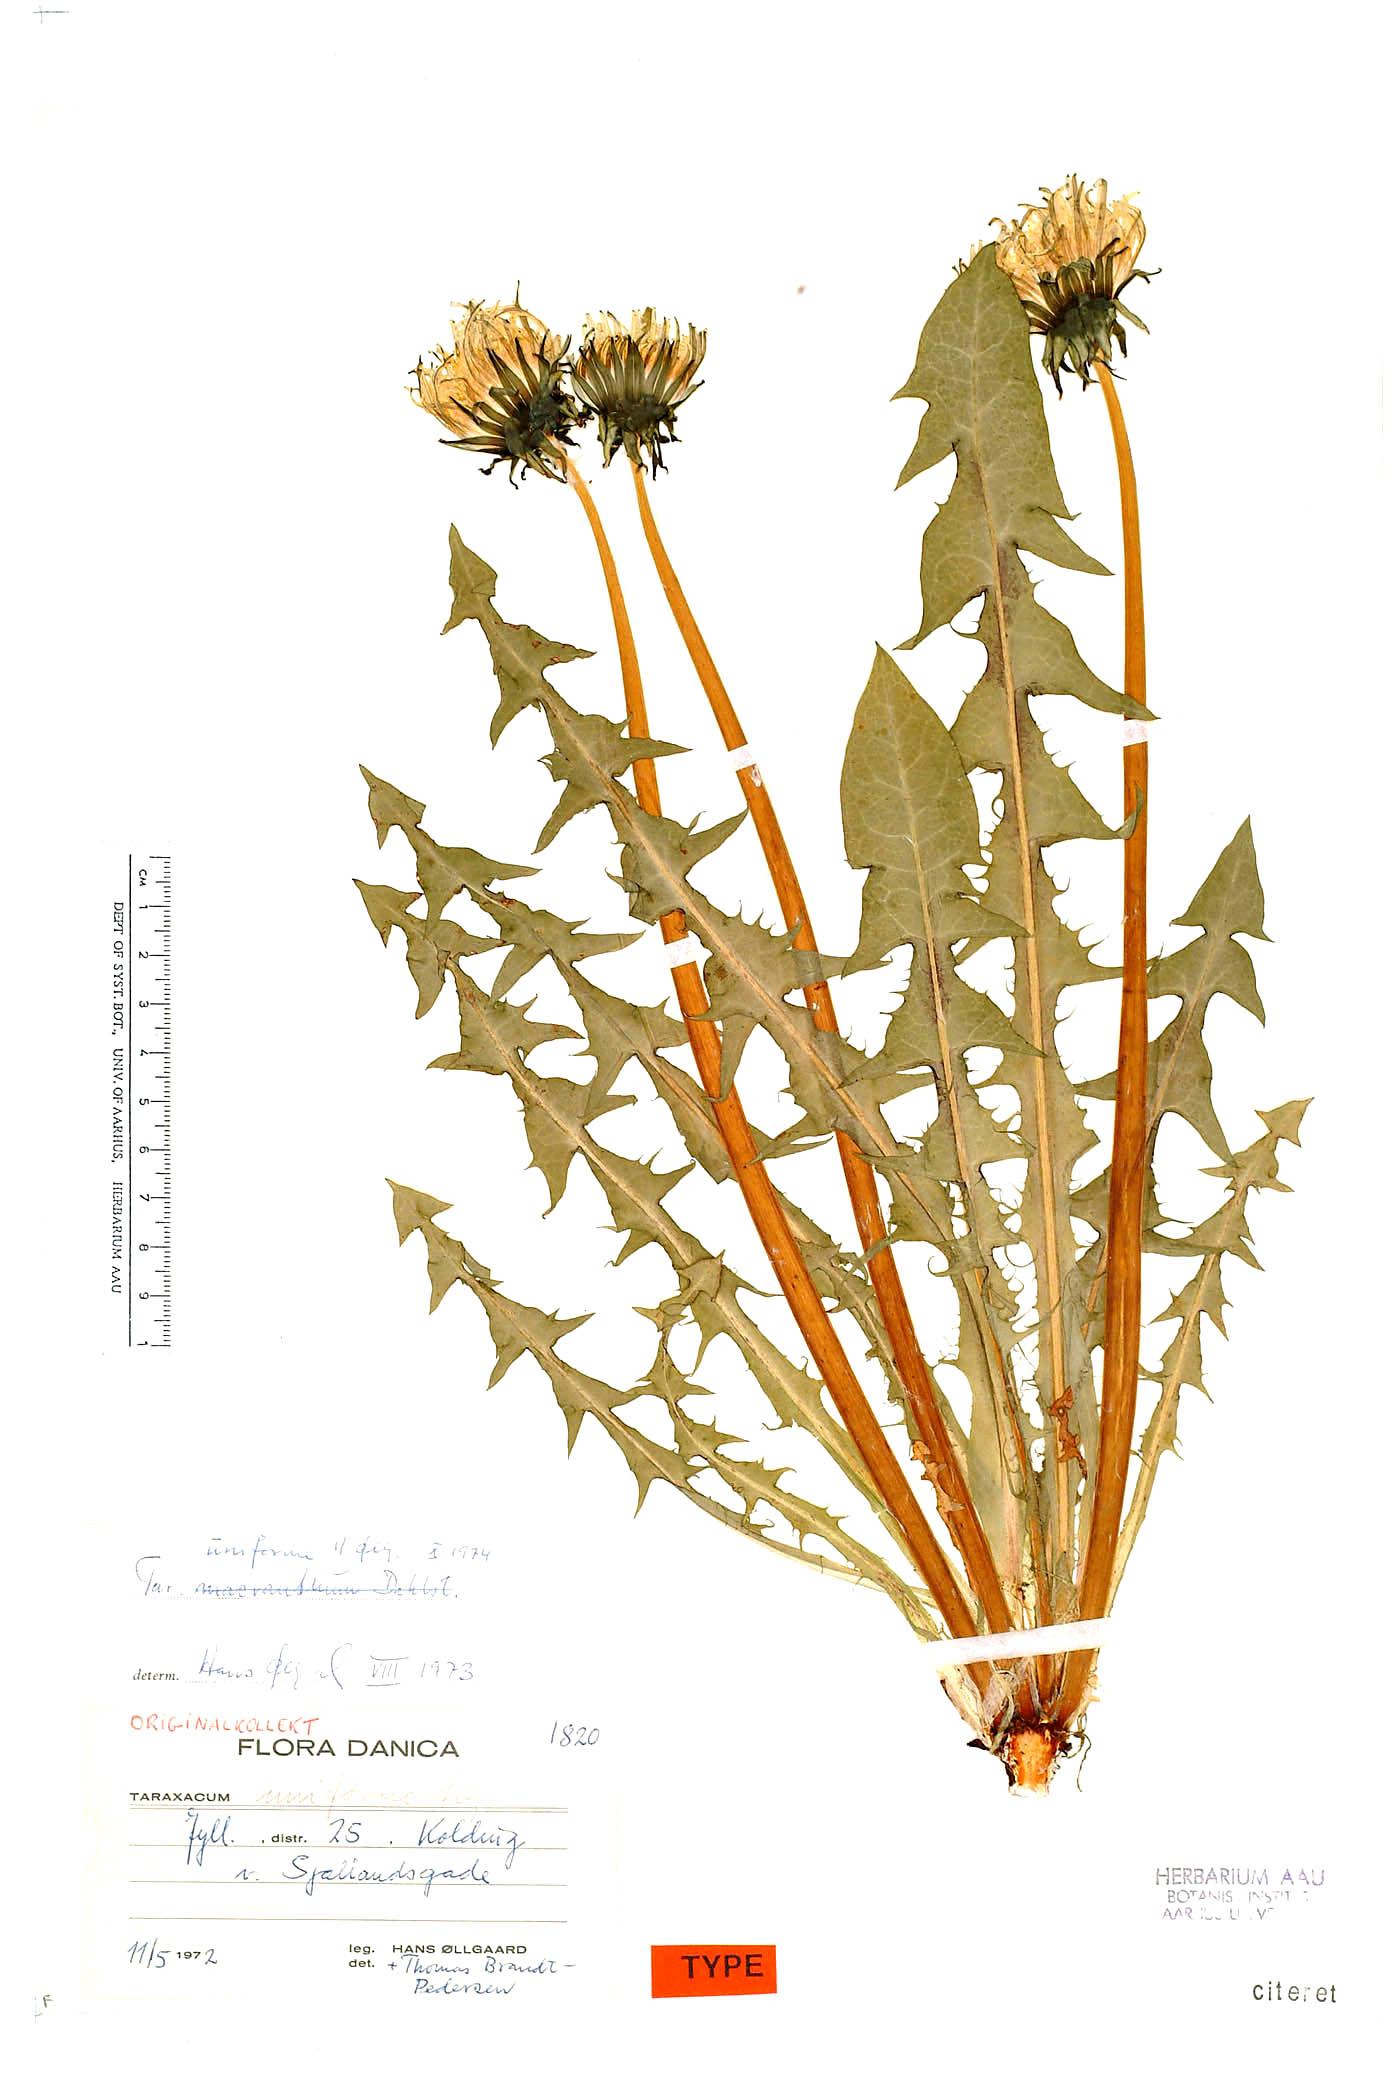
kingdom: Plantae
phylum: Tracheophyta
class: Magnoliopsida
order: Asterales
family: Asteraceae
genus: Taraxacum
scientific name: Taraxacum uniforme
